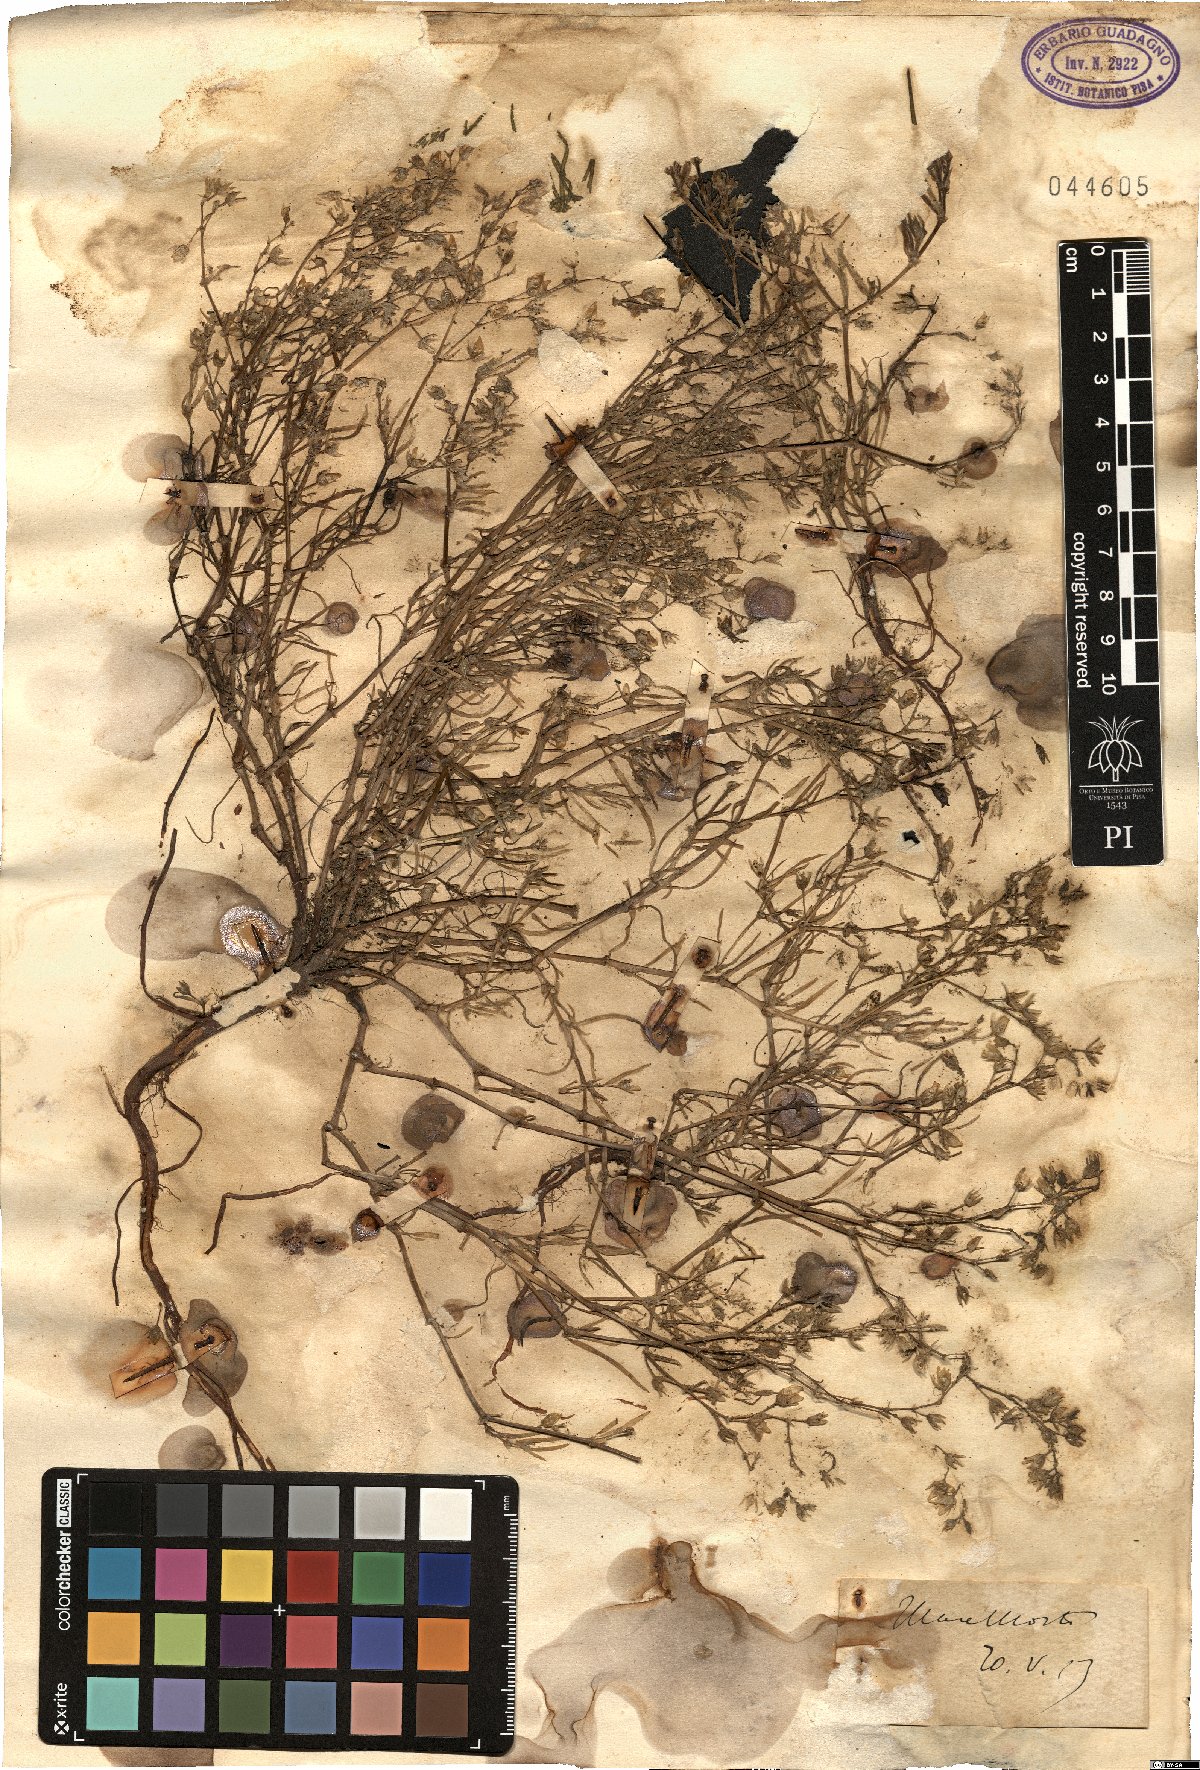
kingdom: Plantae
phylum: Tracheophyta
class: Magnoliopsida
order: Caryophyllales
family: Caryophyllaceae
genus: Spergularia
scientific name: Spergularia
